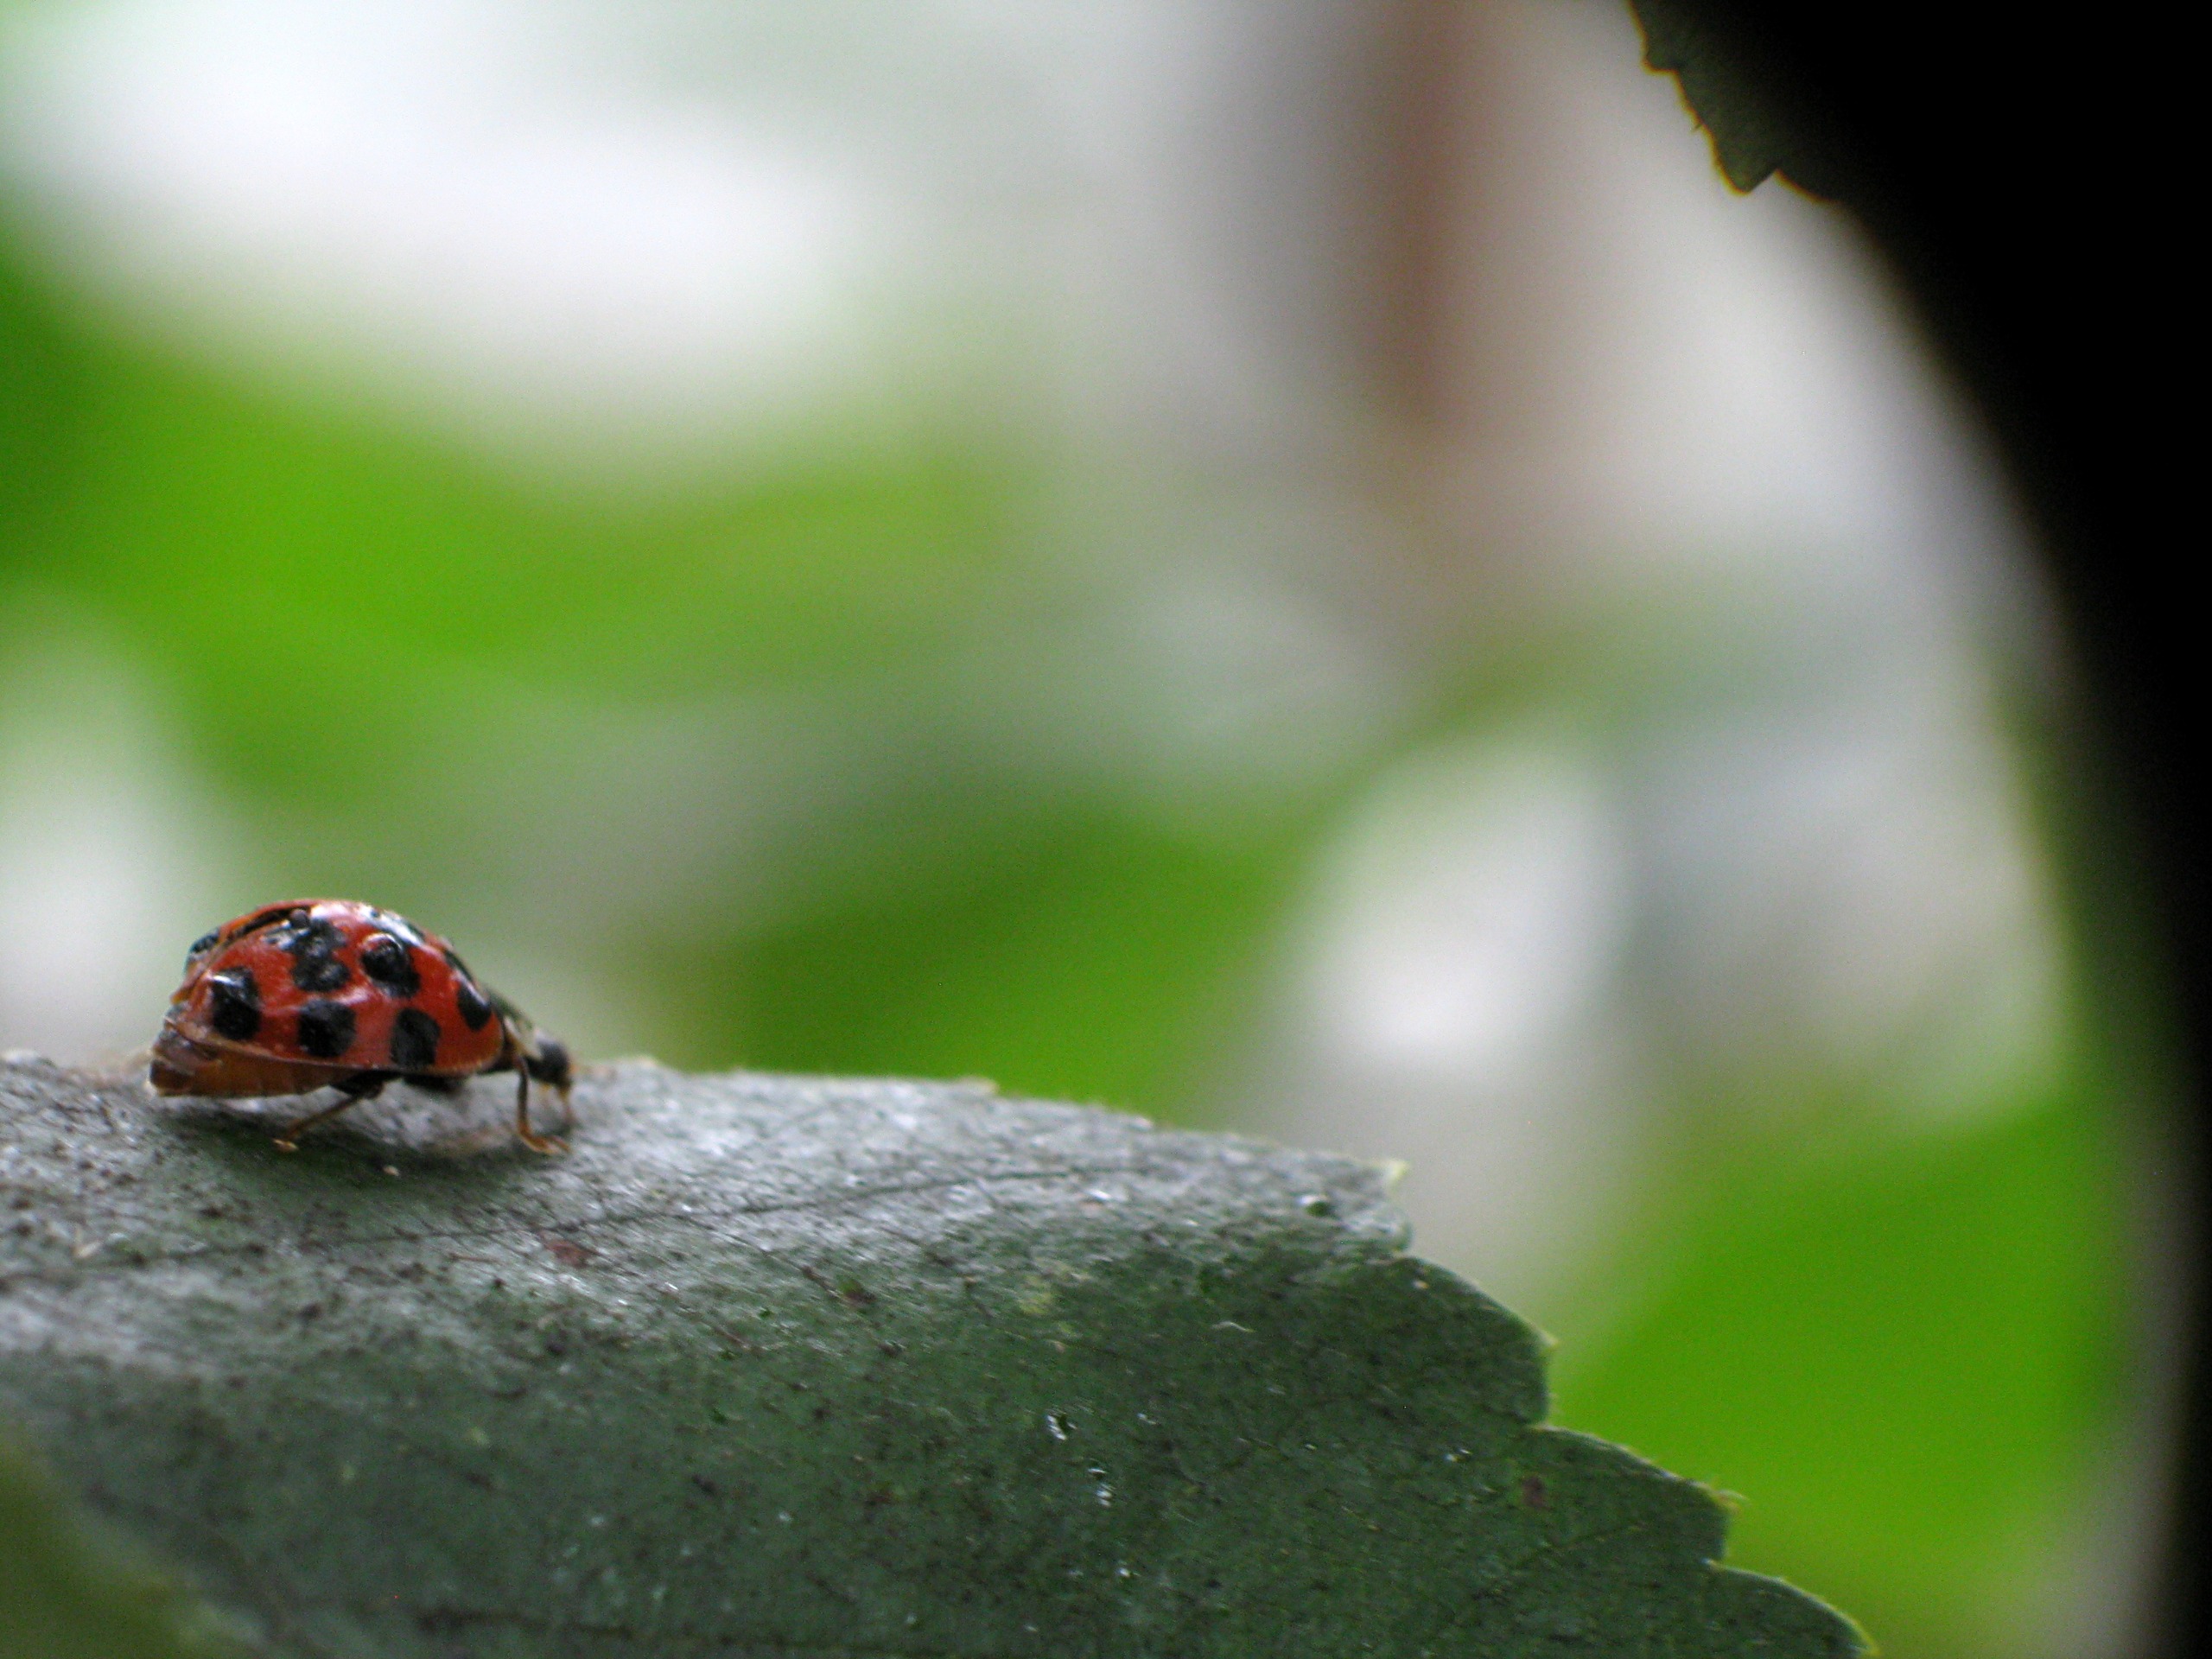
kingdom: Animalia
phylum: Arthropoda
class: Insecta
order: Coleoptera
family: Coccinellidae
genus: Harmonia
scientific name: Harmonia axyridis
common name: Harlekinmariehøne
